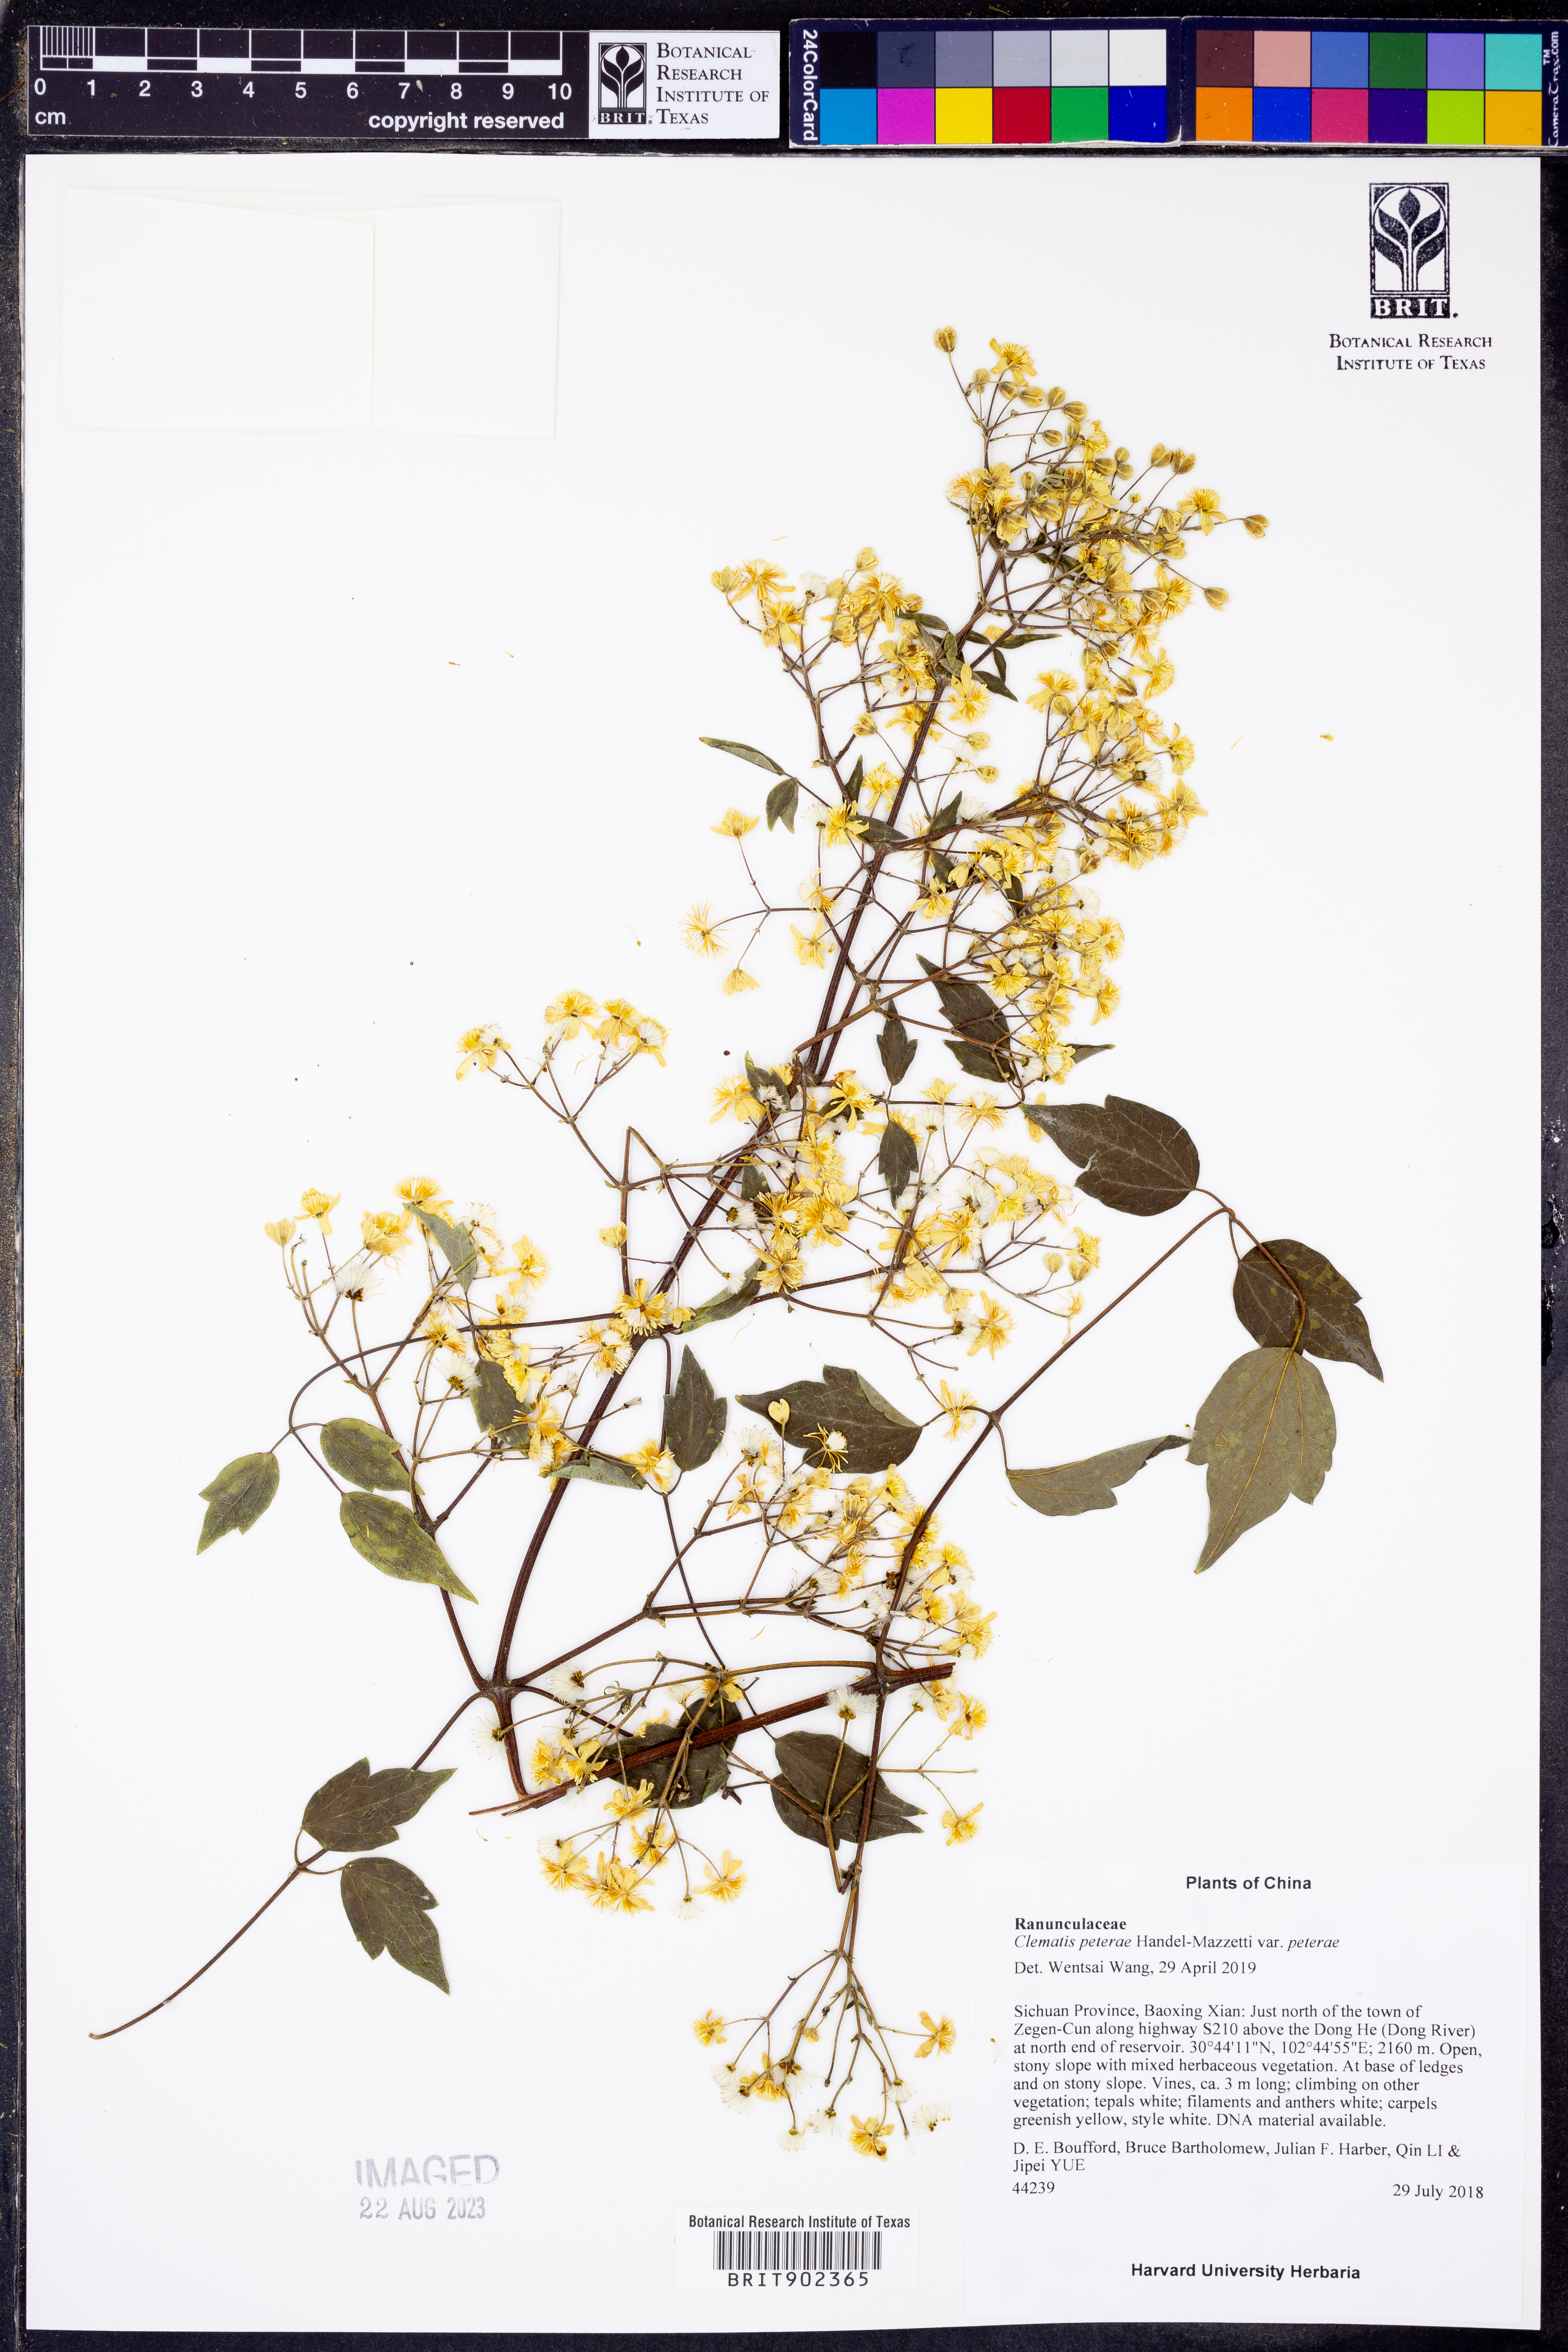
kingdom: Plantae
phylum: Tracheophyta
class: Magnoliopsida
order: Ranunculales
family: Ranunculaceae
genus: Clematis
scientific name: Clematis peterae
